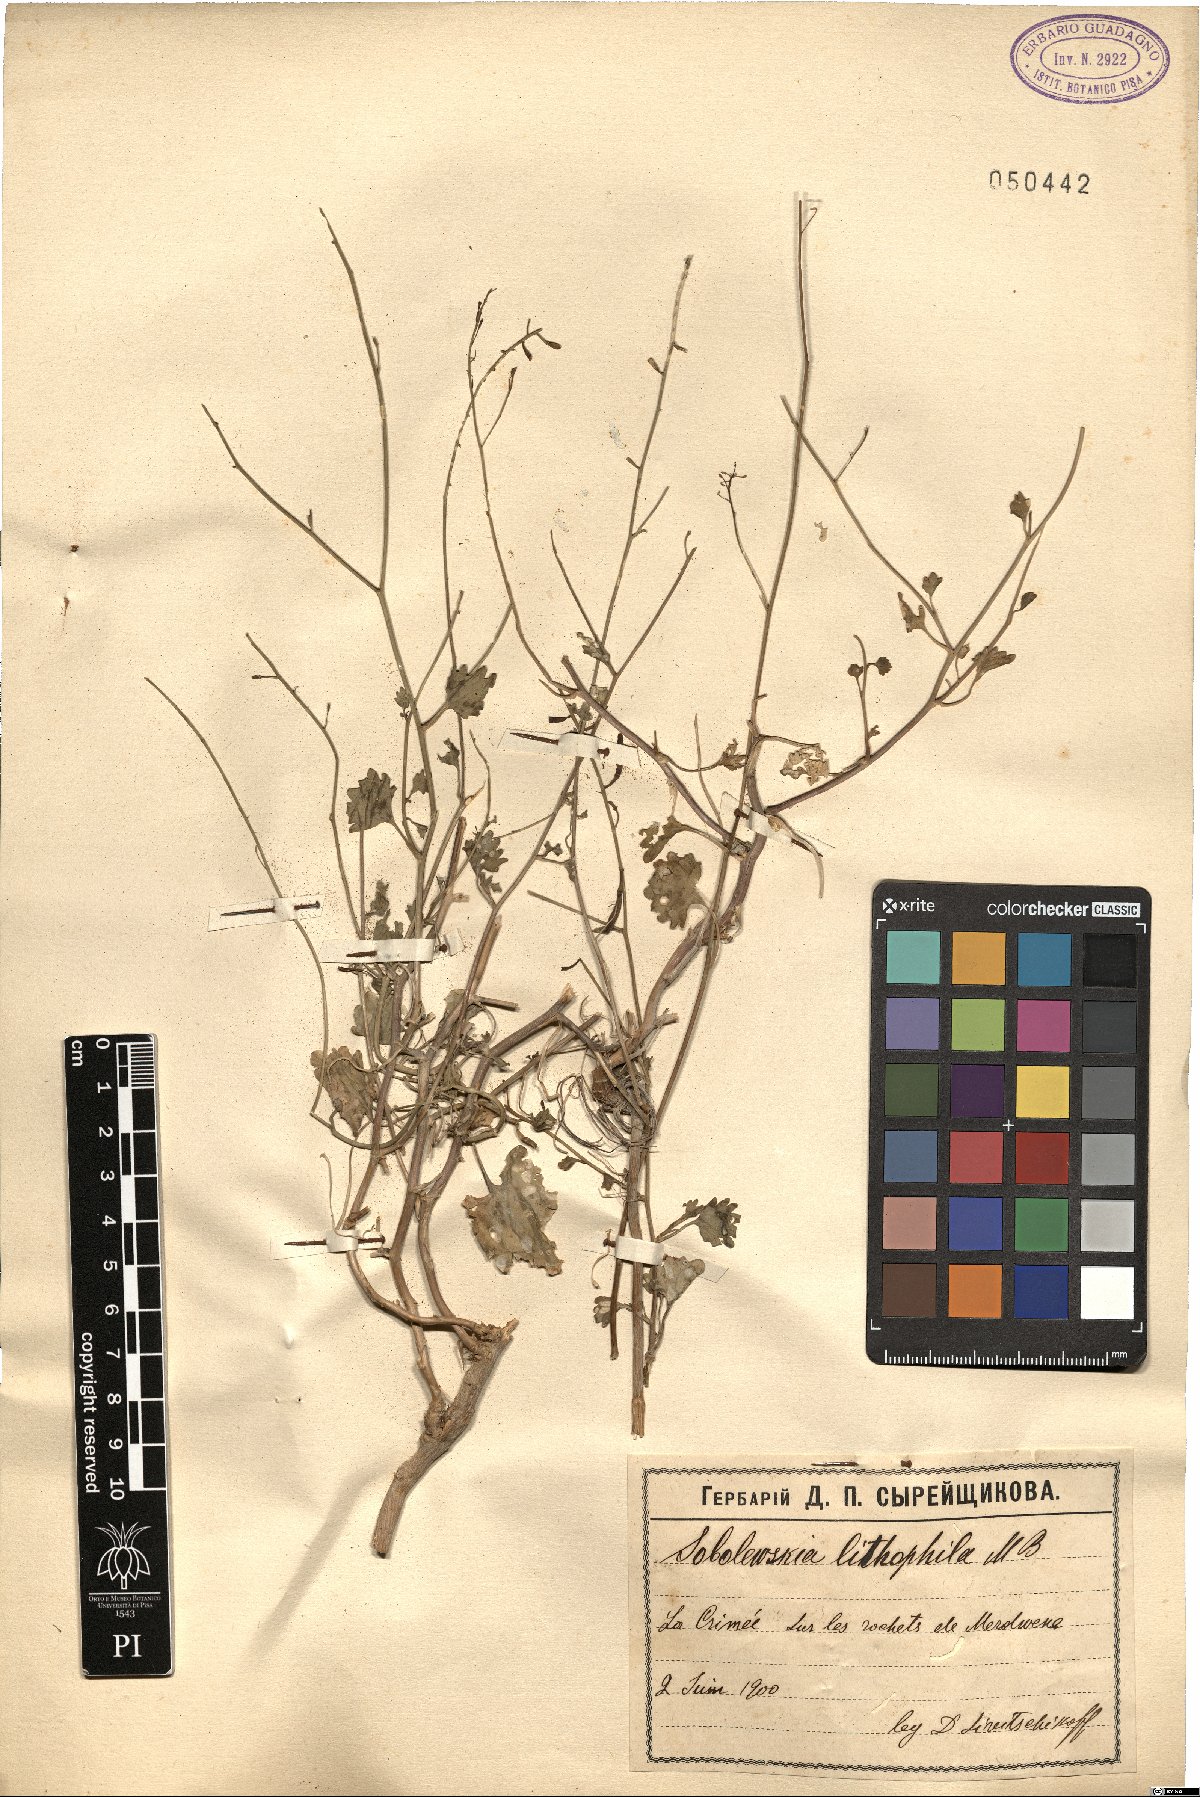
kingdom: Plantae
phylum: Tracheophyta
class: Magnoliopsida
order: Brassicales
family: Brassicaceae
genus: Sobolewskia
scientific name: Sobolewskia sibirica
